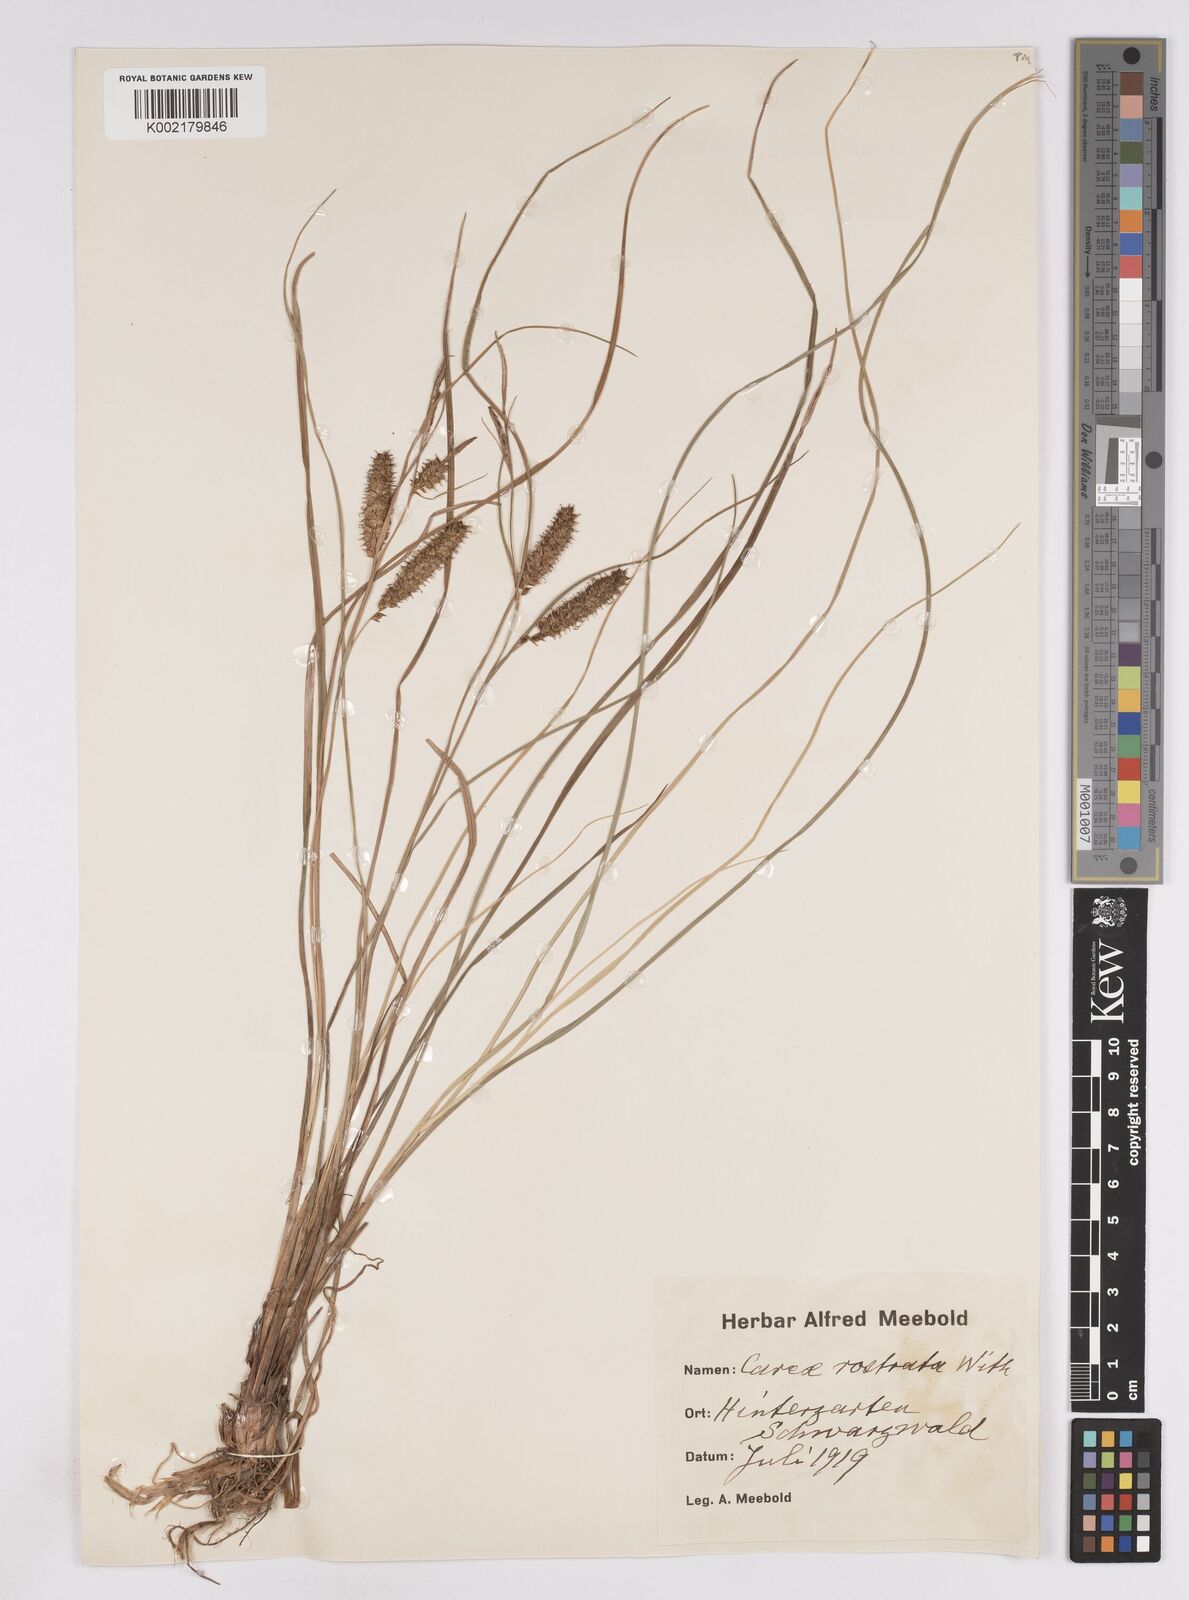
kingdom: Plantae
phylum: Tracheophyta
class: Liliopsida
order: Poales
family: Cyperaceae
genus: Carex
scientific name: Carex rostrata
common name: Bottle sedge
